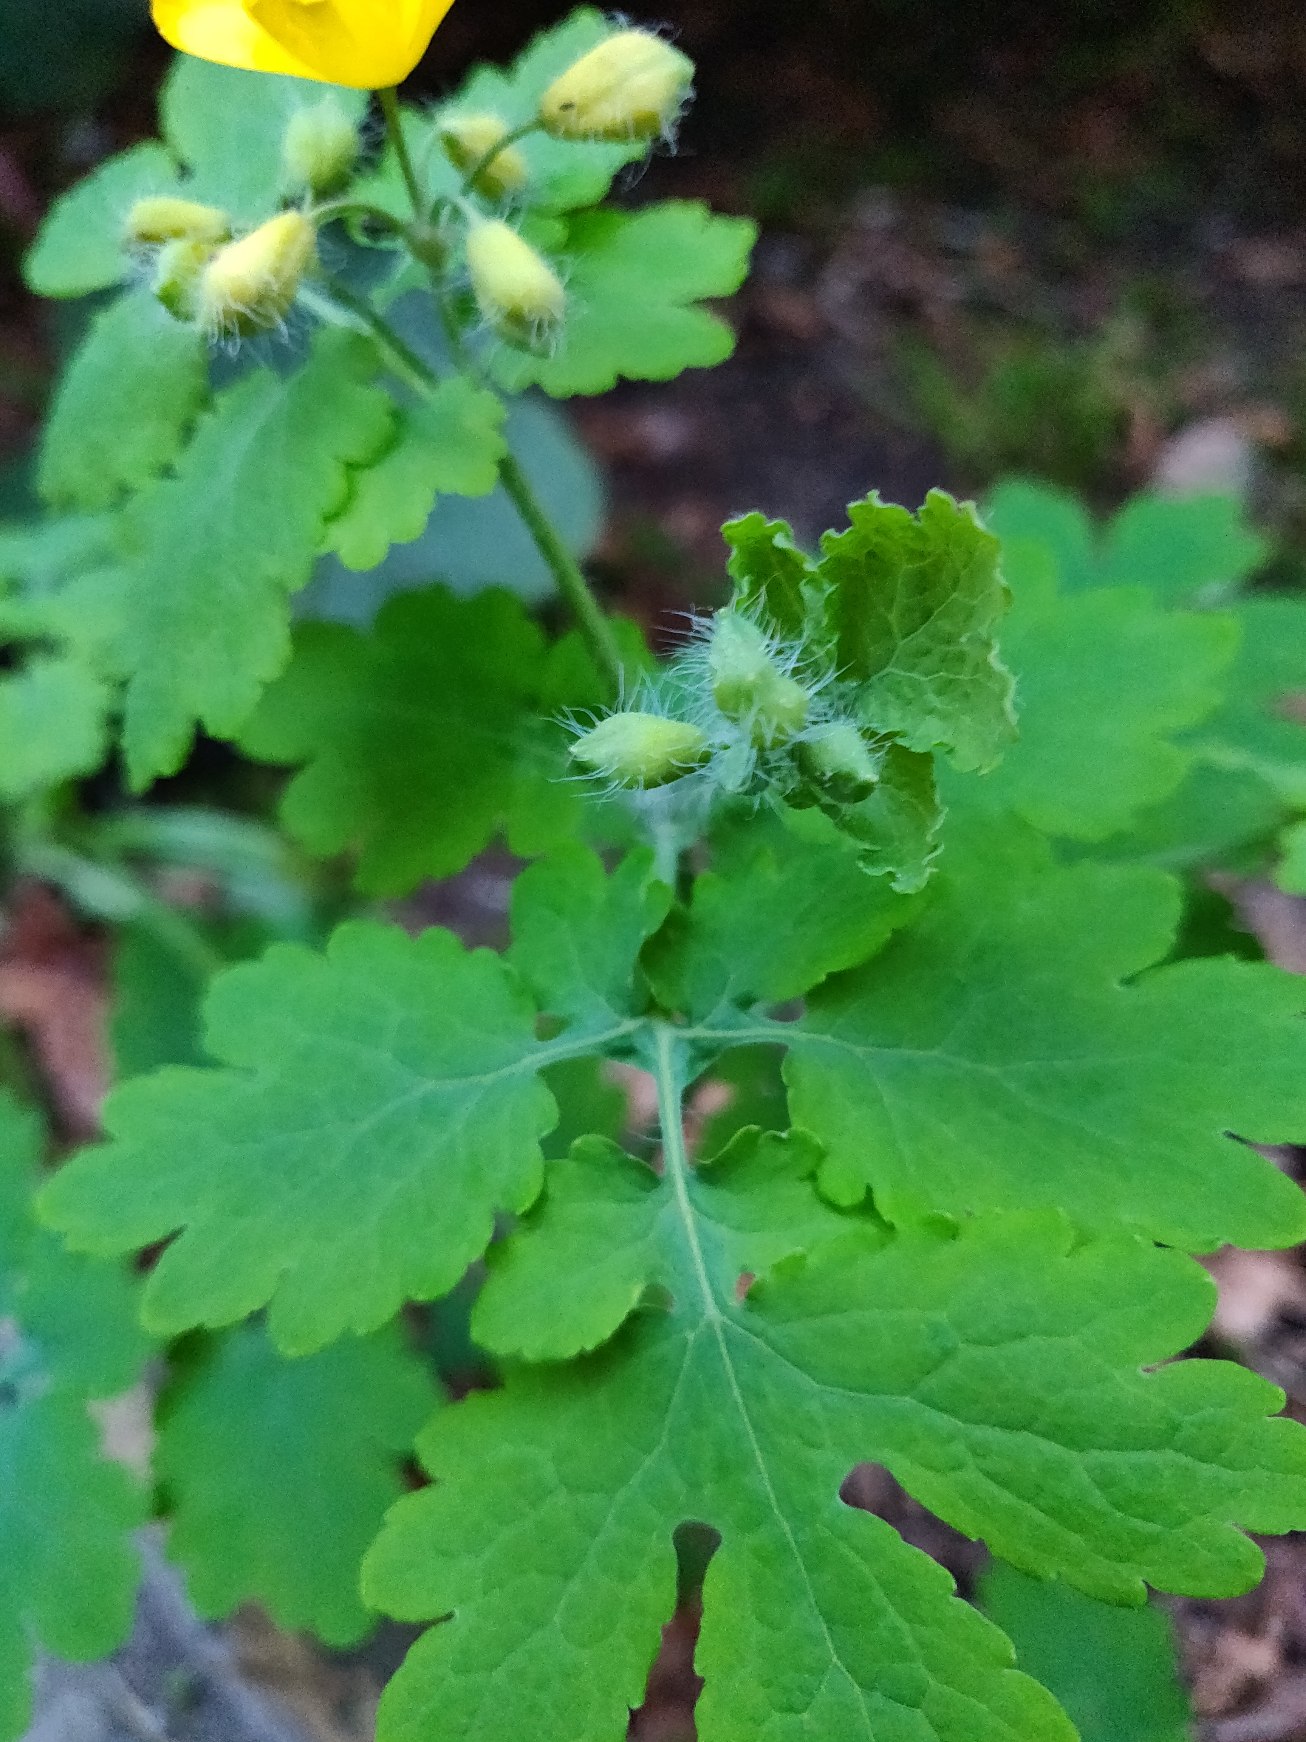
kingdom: Plantae
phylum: Tracheophyta
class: Magnoliopsida
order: Ranunculales
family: Papaveraceae
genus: Chelidonium
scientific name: Chelidonium majus
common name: Svaleurt
